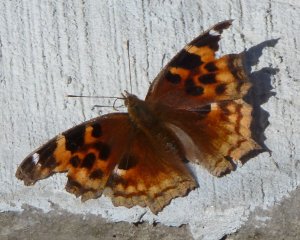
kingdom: Animalia
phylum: Arthropoda
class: Insecta
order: Lepidoptera
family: Nymphalidae
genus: Polygonia
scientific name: Polygonia vaualbum
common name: Compton Tortoiseshell
